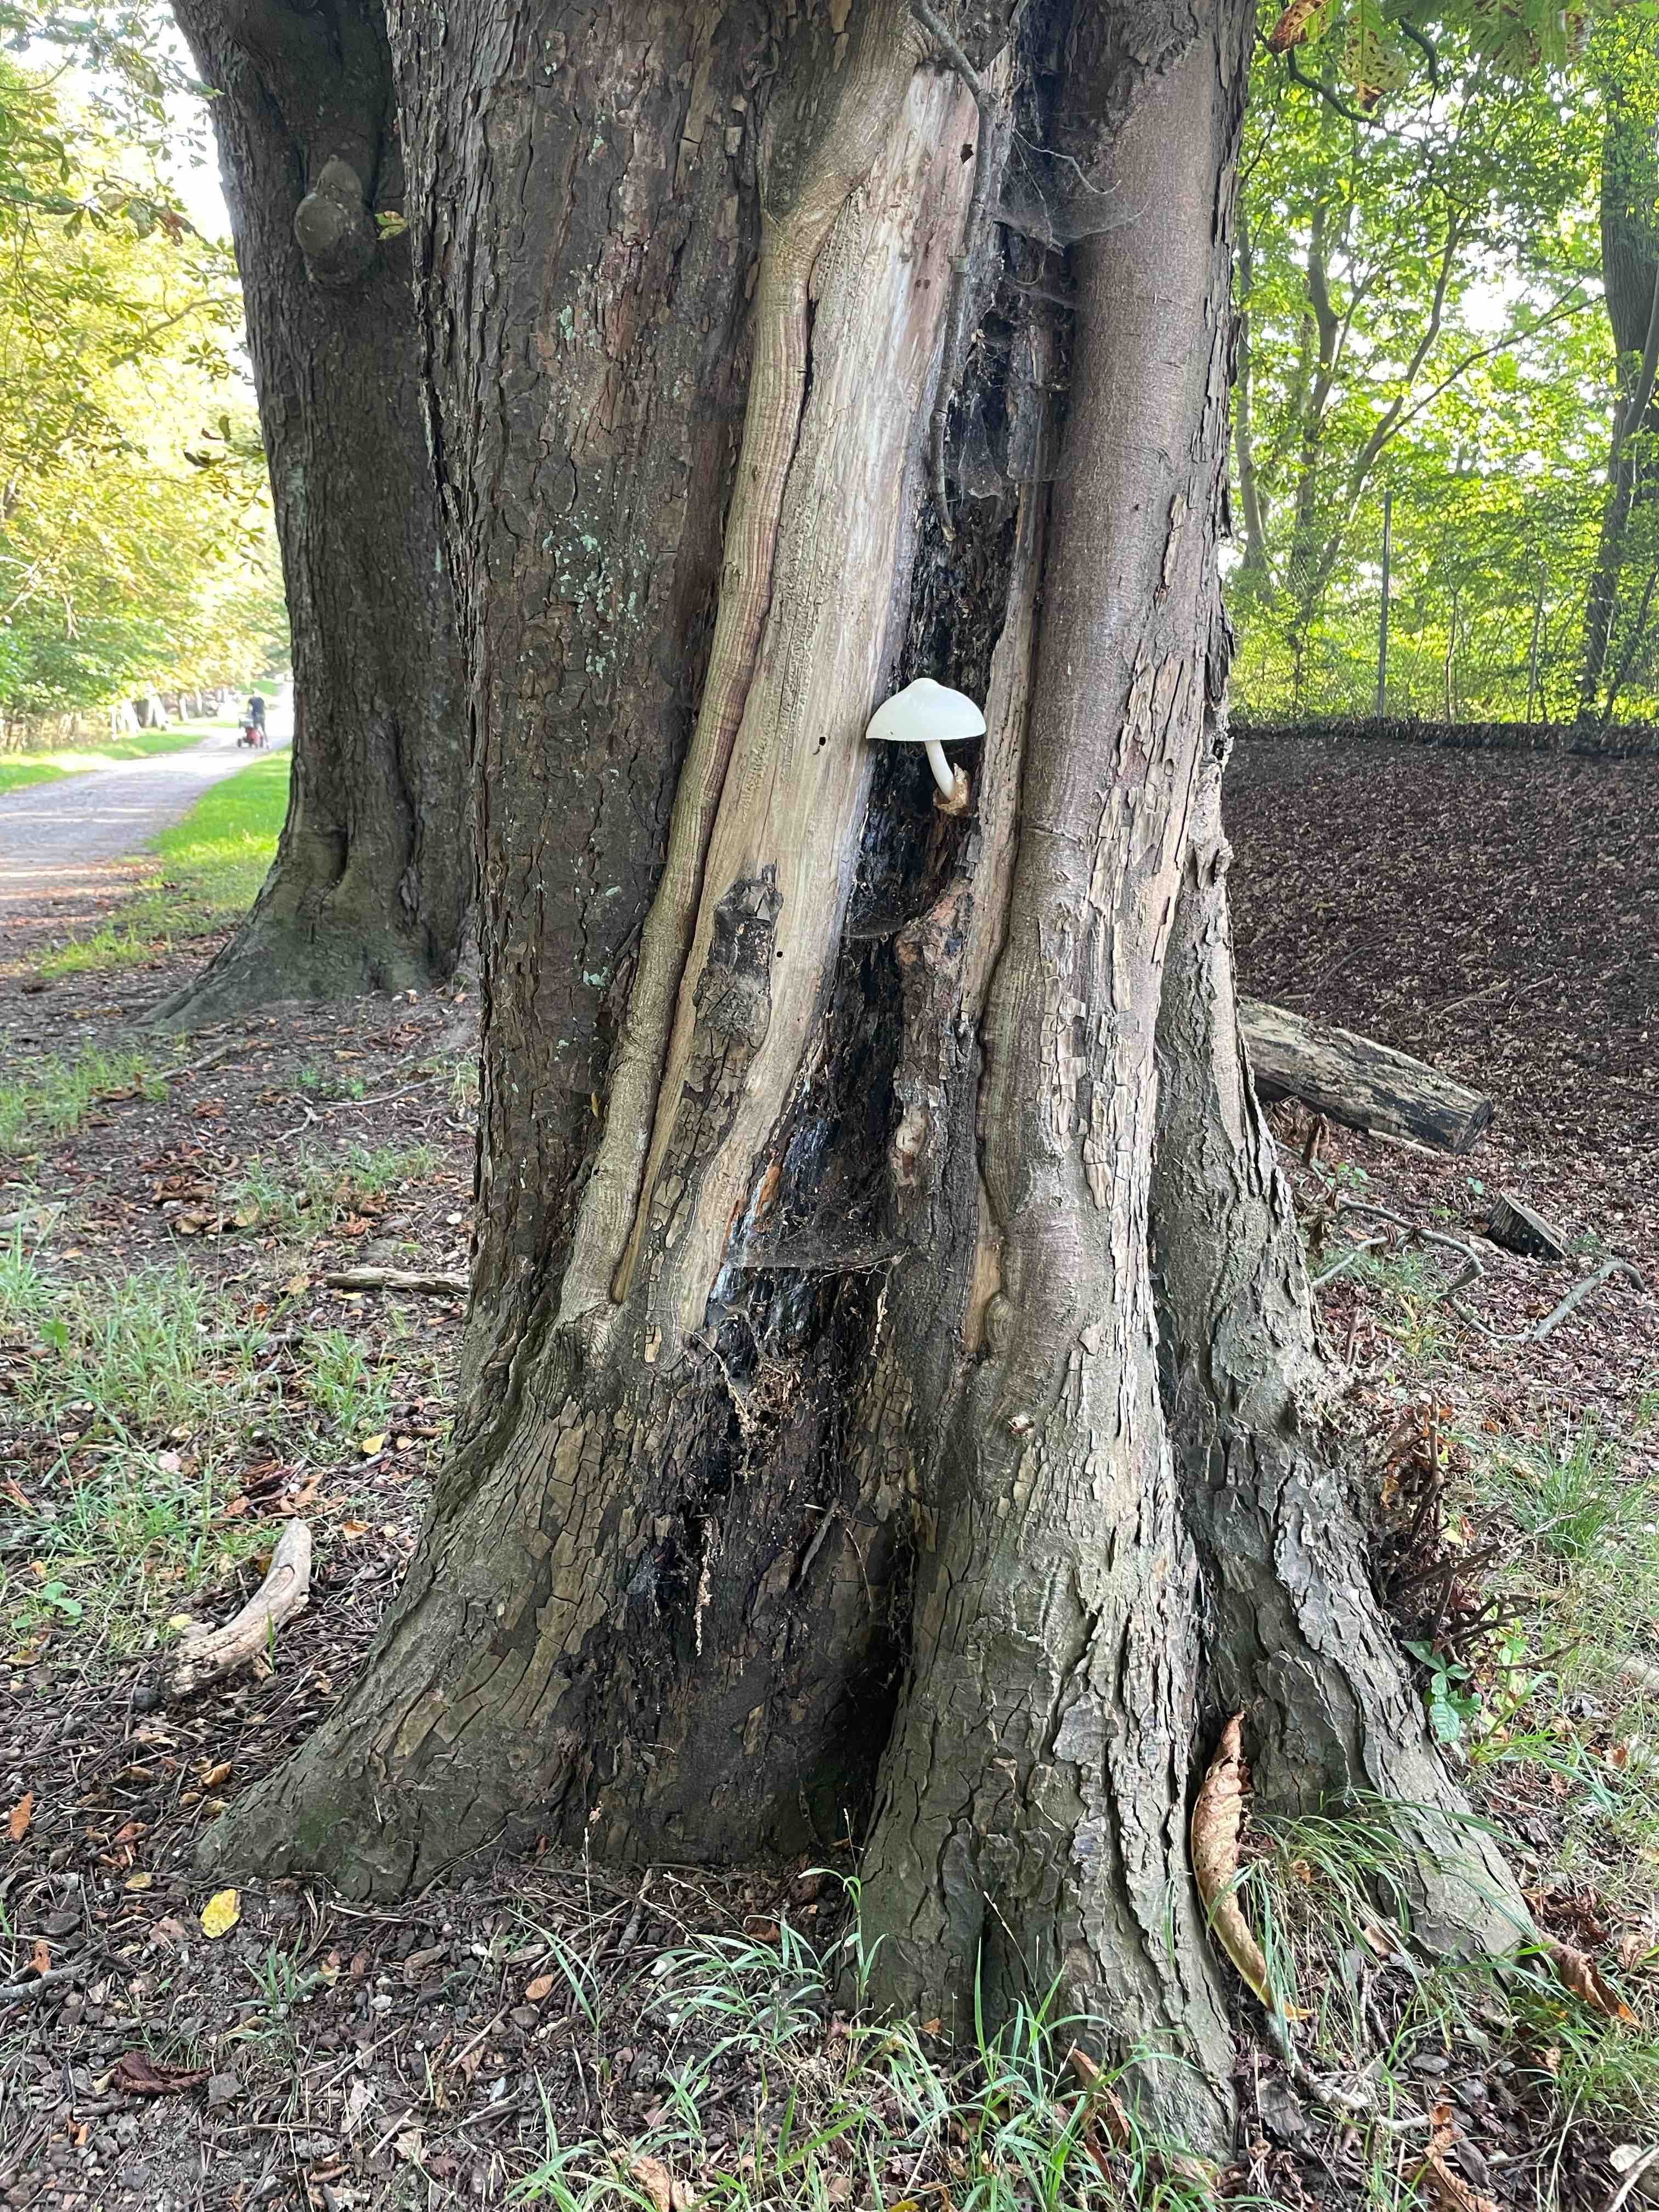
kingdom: Fungi
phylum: Basidiomycota
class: Agaricomycetes
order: Agaricales
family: Pluteaceae
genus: Volvariella
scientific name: Volvariella bombycina
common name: silkehåret posesvamp
